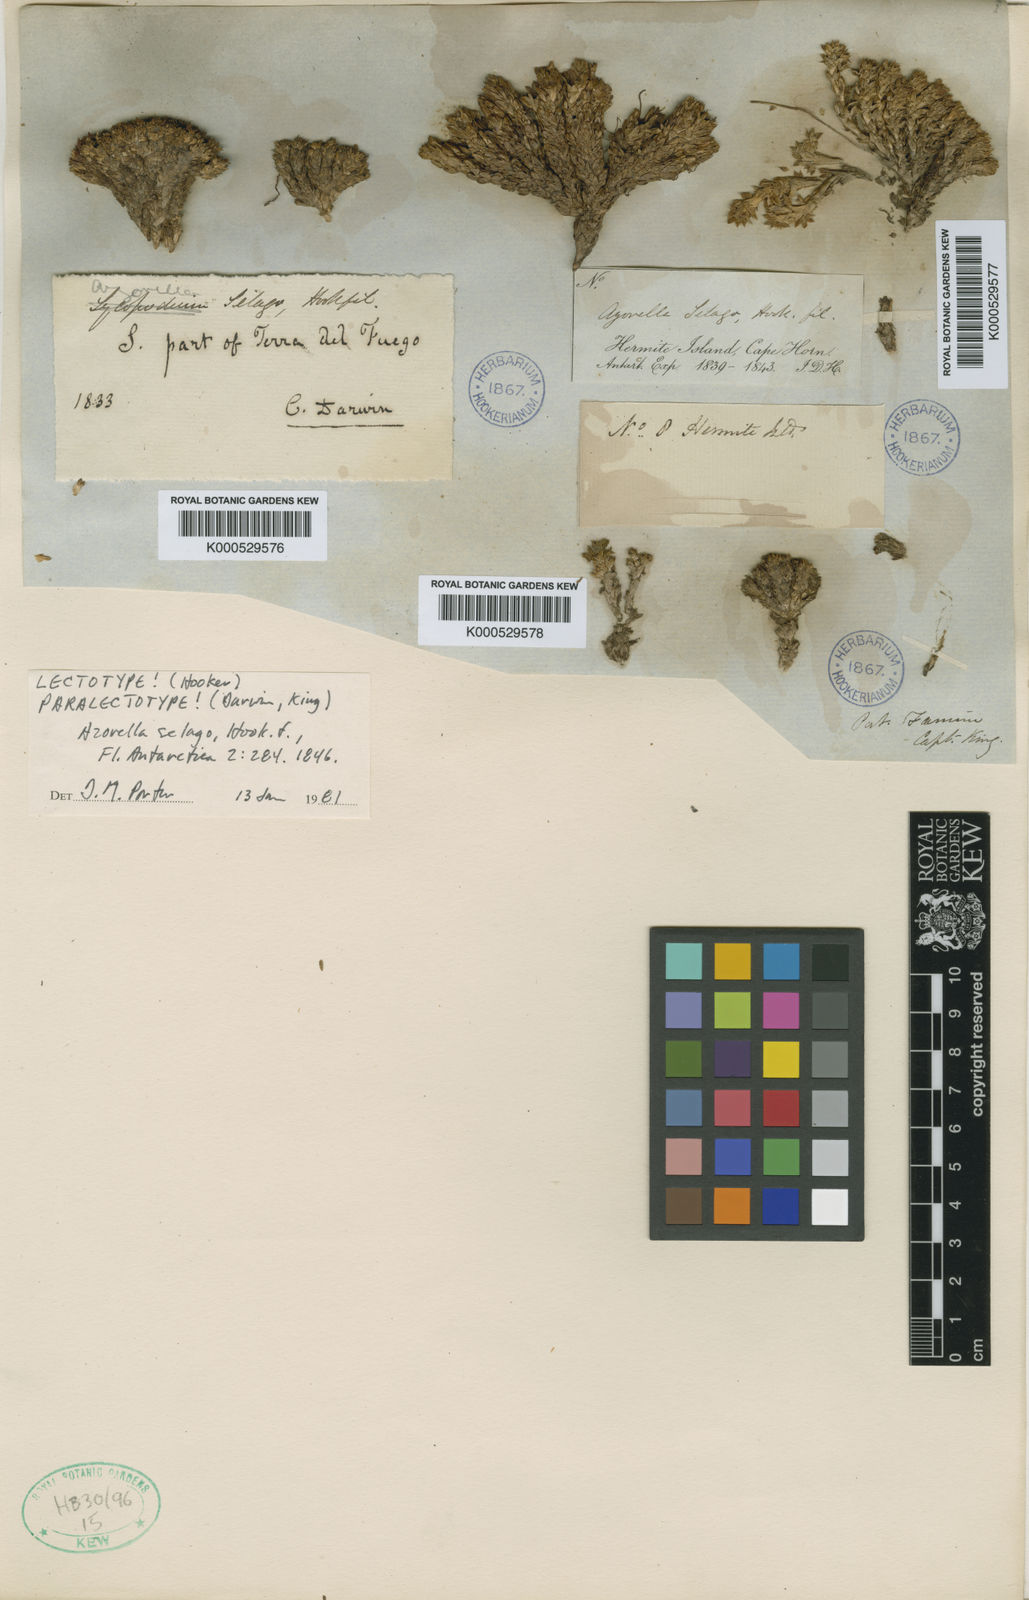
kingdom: Plantae
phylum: Tracheophyta
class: Magnoliopsida
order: Apiales
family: Apiaceae
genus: Azorella
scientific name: Azorella selago
